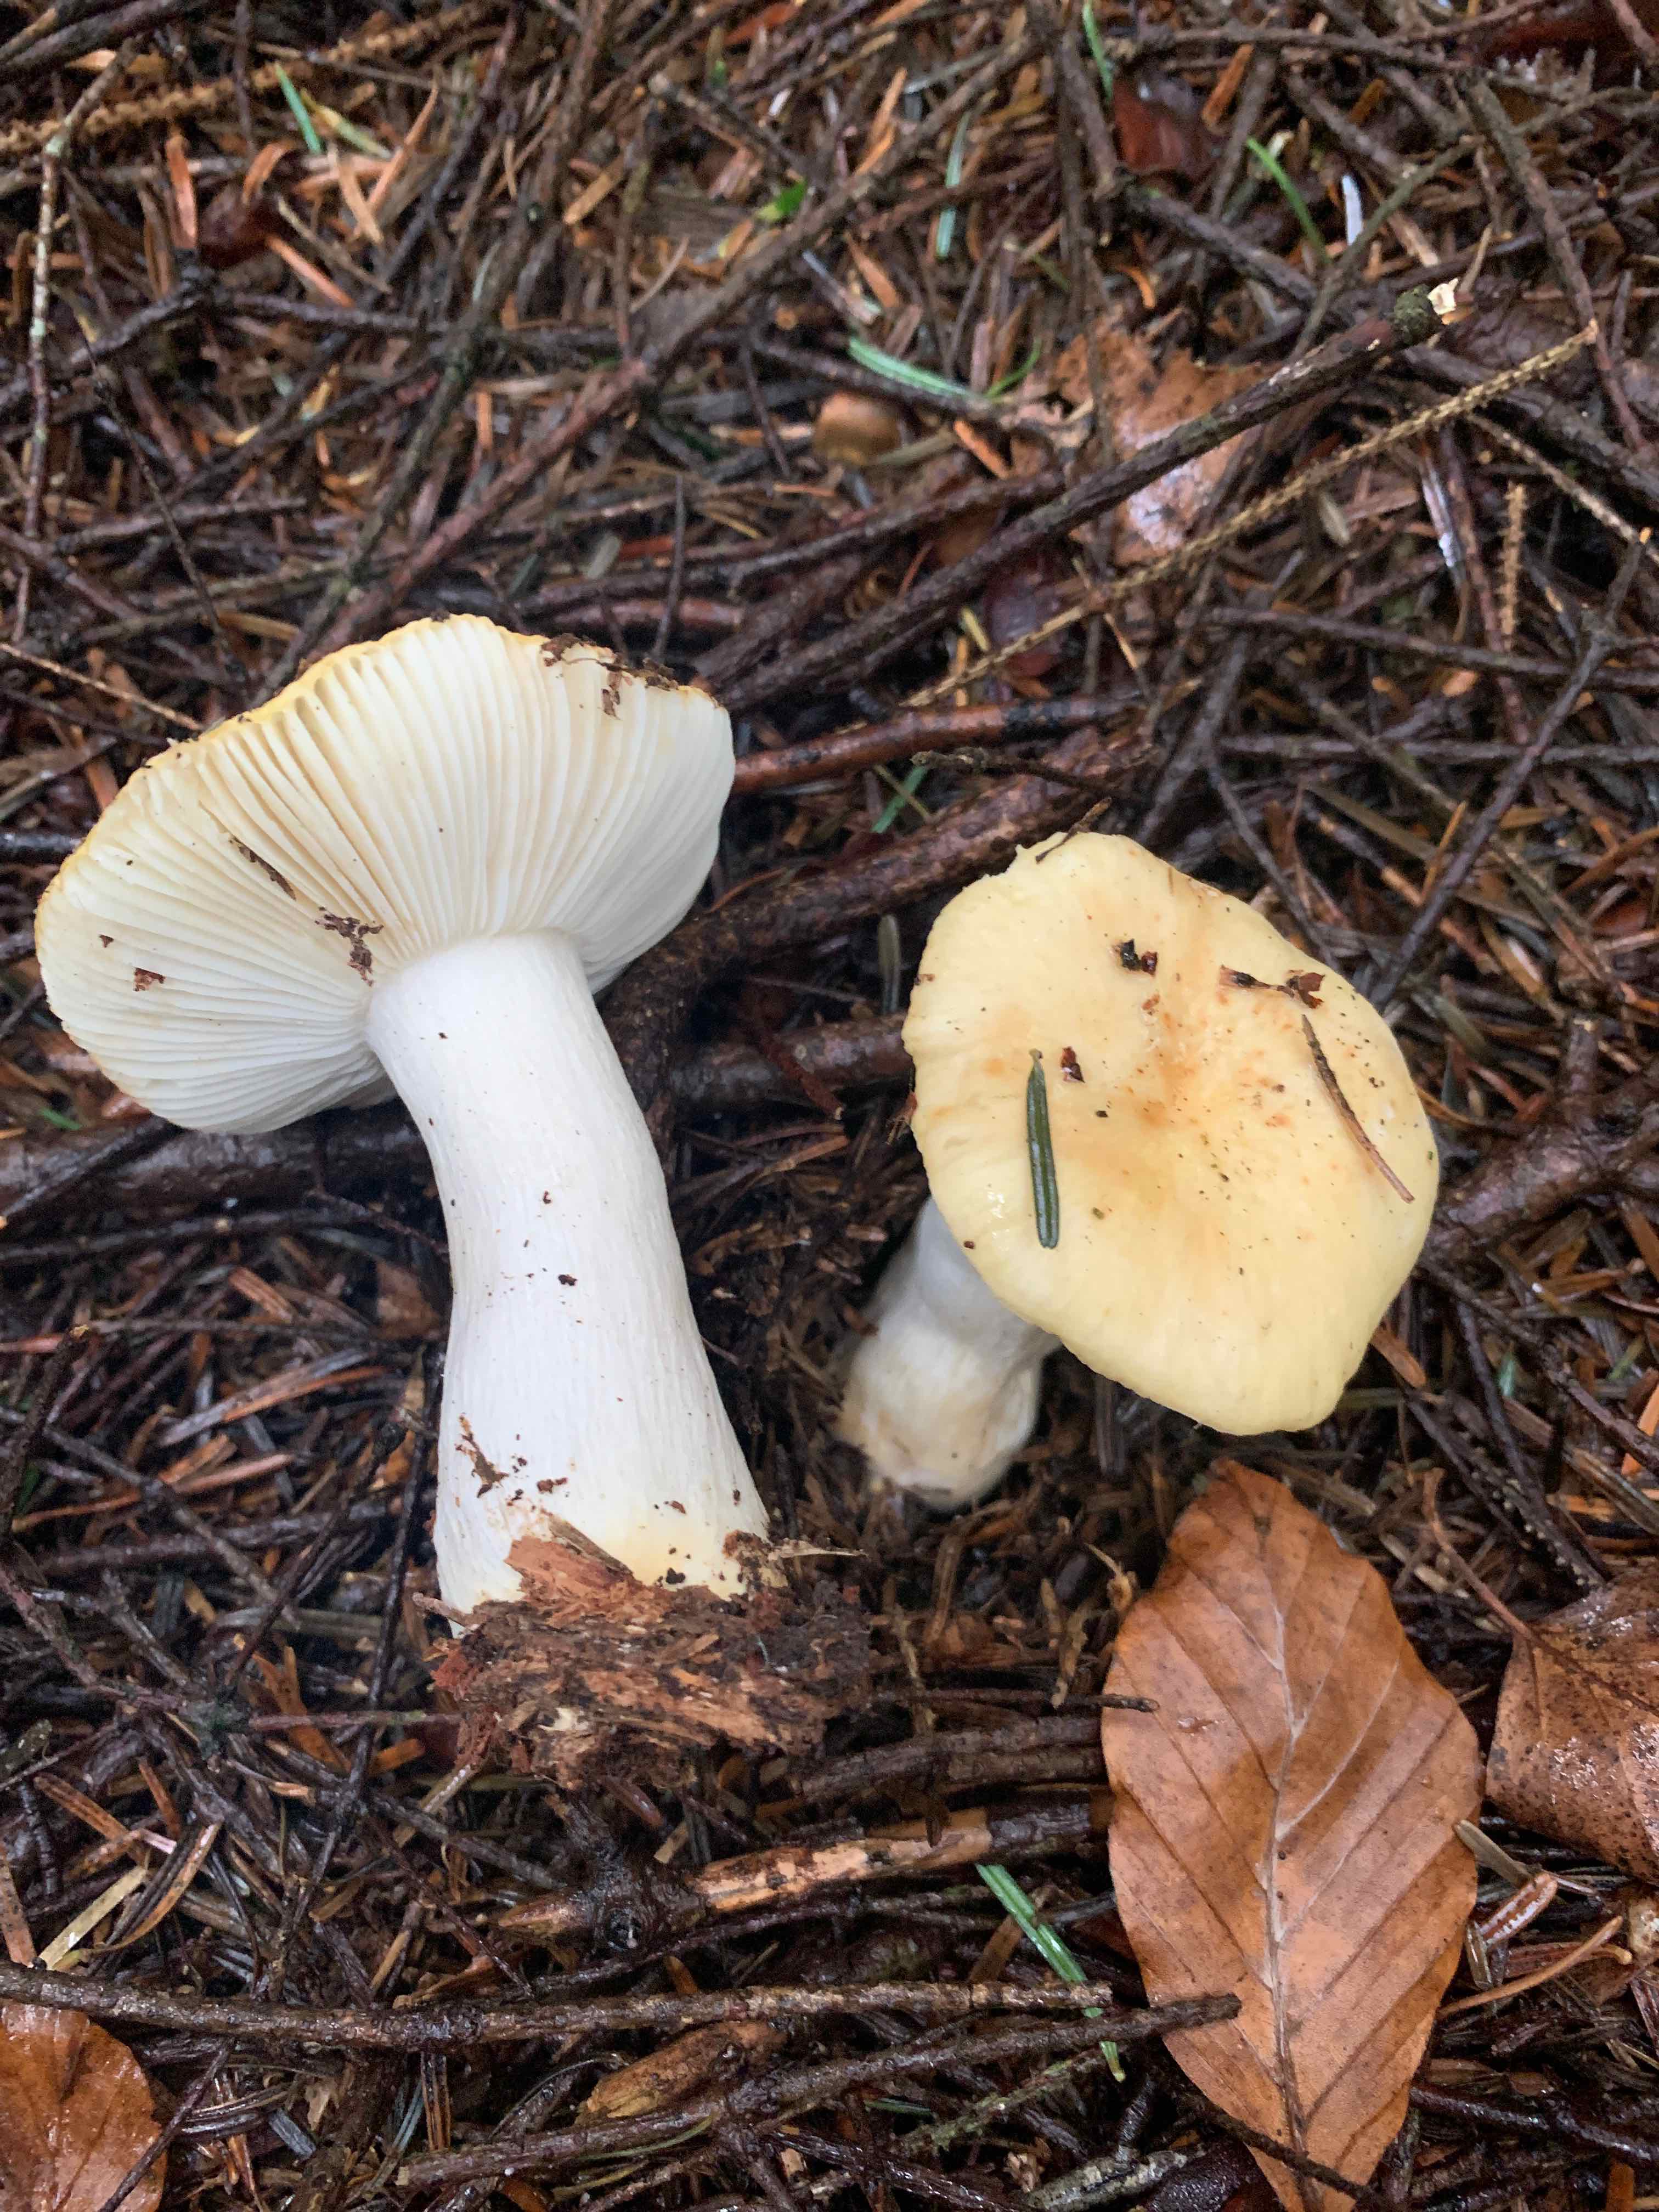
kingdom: Fungi
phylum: Basidiomycota
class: Agaricomycetes
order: Russulales
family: Russulaceae
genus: Russula
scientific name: Russula ochroleuca
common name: okkergul skørhat
